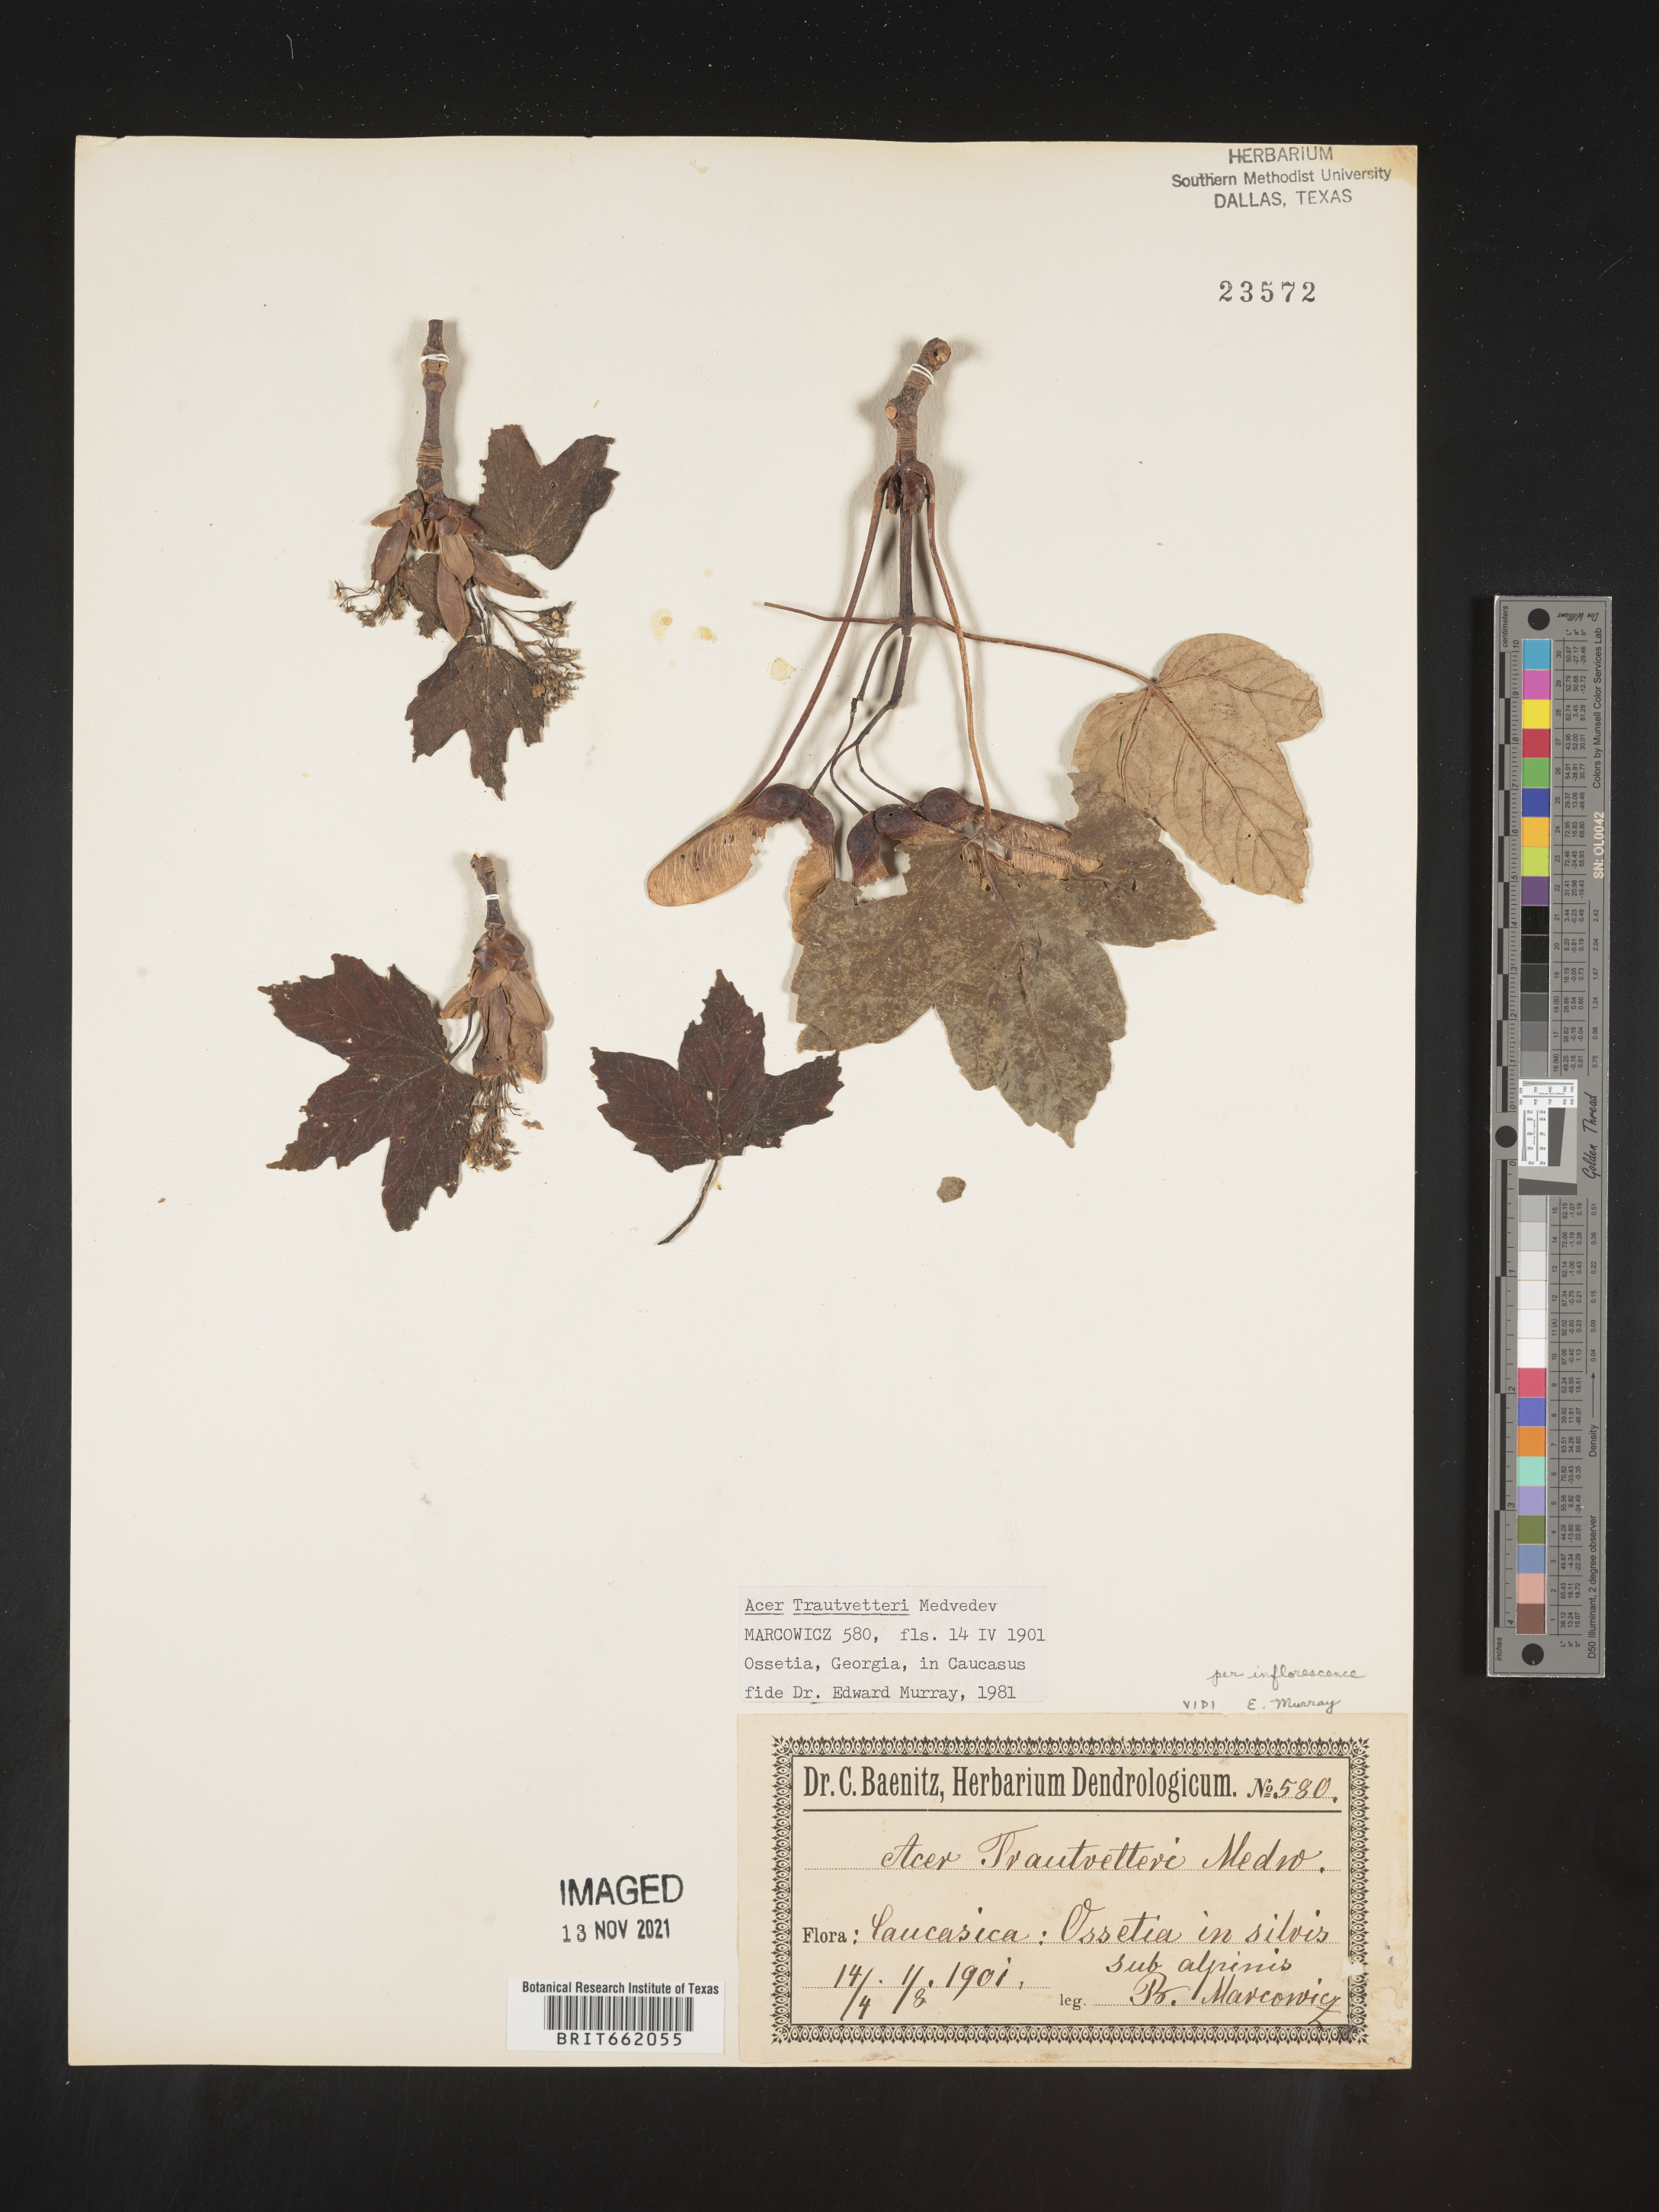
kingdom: Plantae
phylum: Tracheophyta
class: Magnoliopsida
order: Sapindales
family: Sapindaceae
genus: Acer
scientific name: Acer
